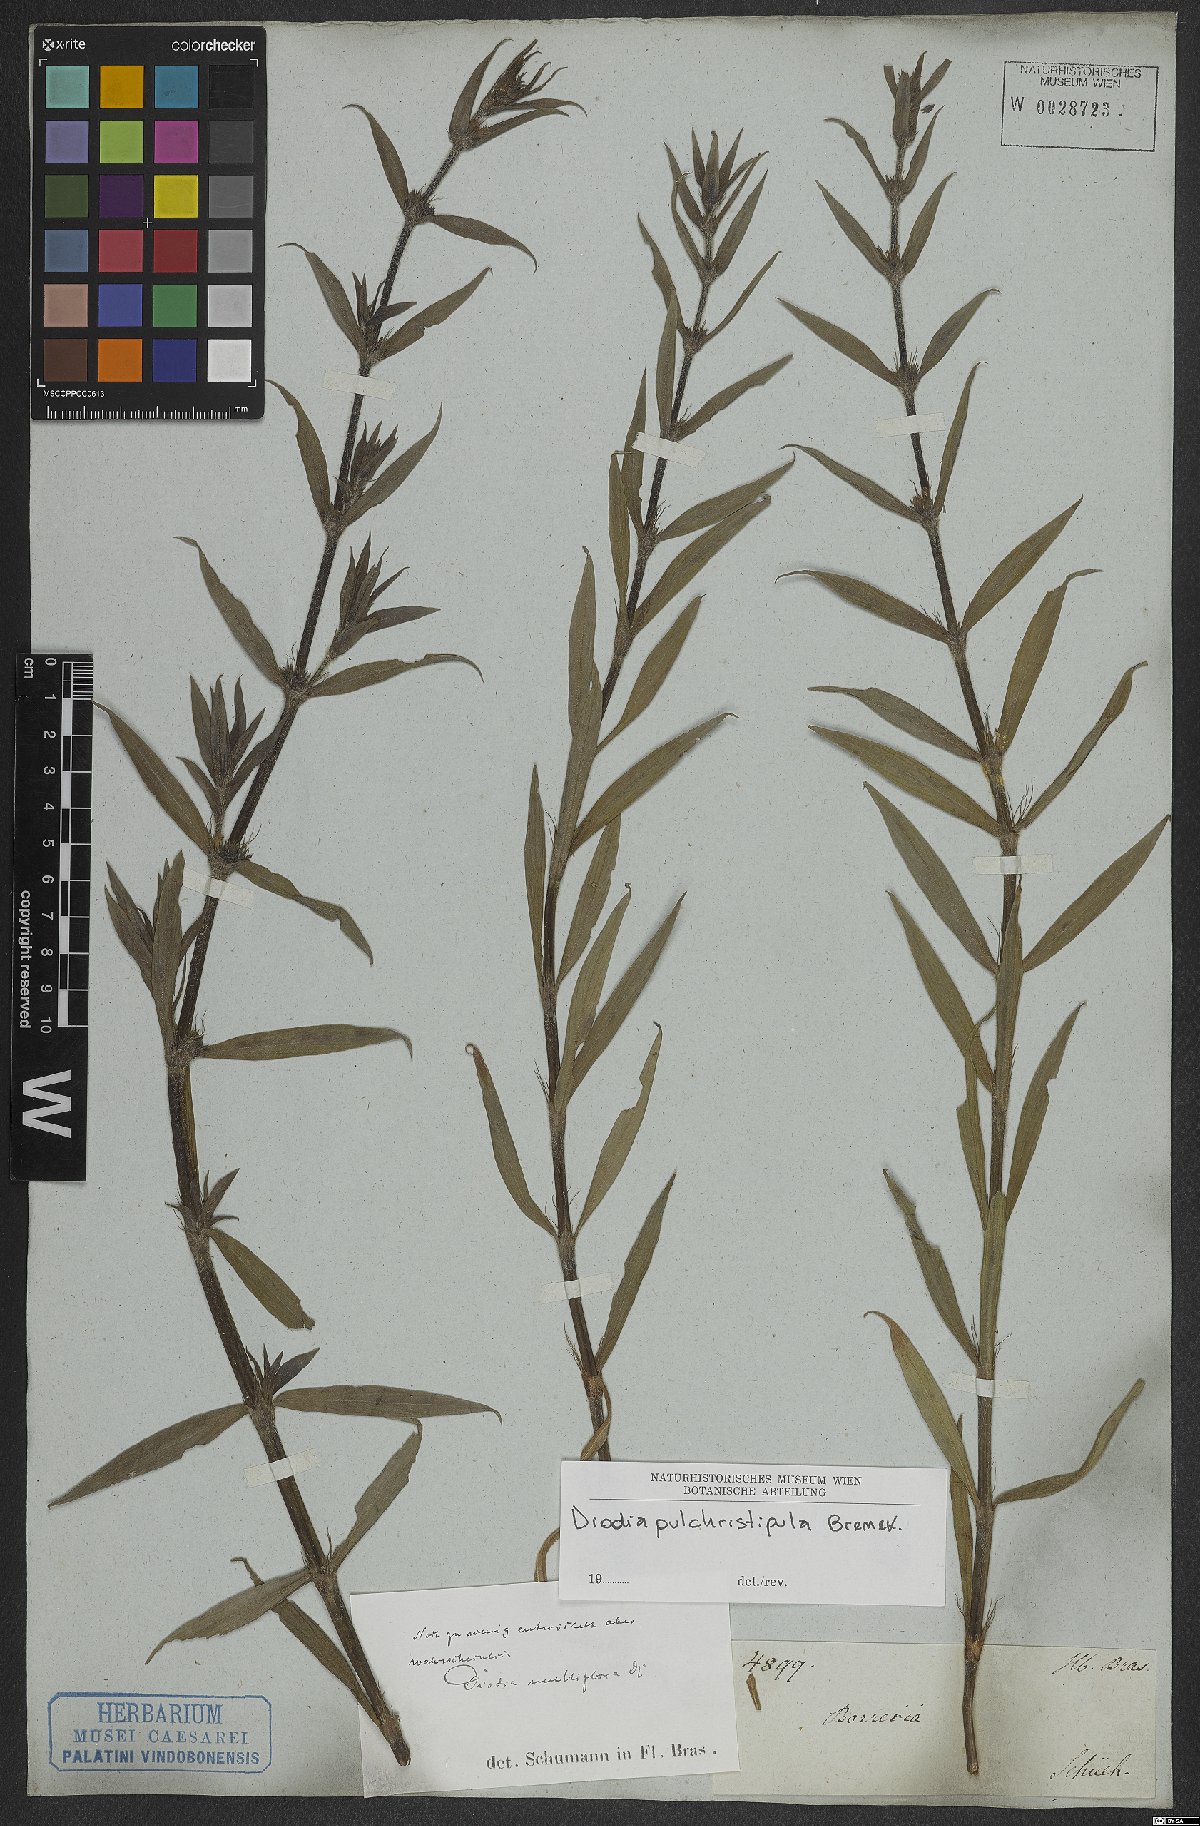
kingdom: Plantae
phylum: Tracheophyta
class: Magnoliopsida
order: Gentianales
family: Rubiaceae
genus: Spermacoce
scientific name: Spermacoce pulchristipula
